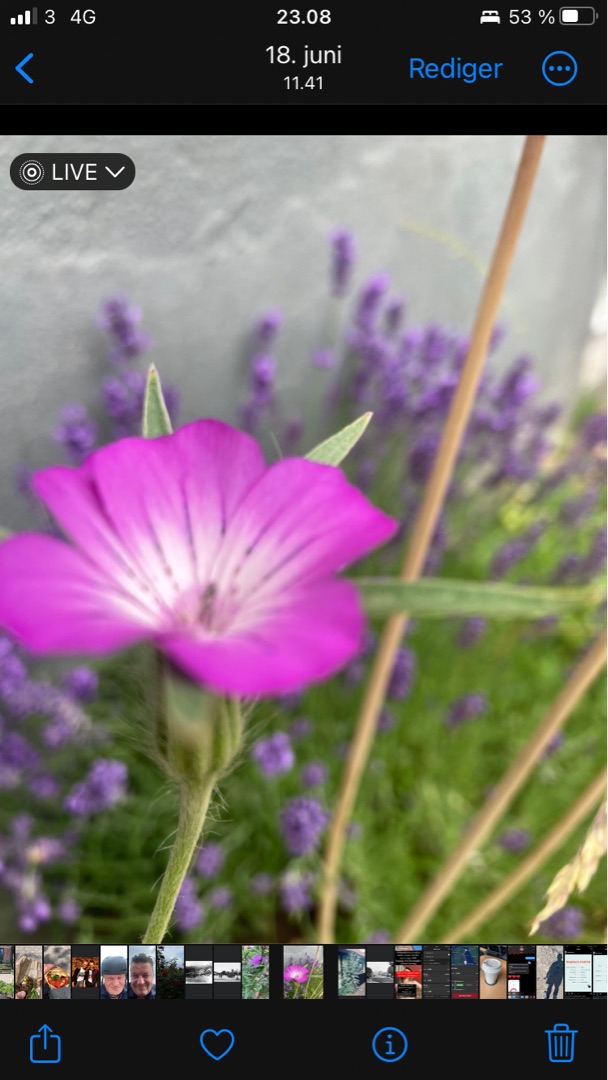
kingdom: Plantae
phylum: Tracheophyta
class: Magnoliopsida
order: Caryophyllales
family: Caryophyllaceae
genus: Agrostemma
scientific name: Agrostemma githago
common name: Klinte
